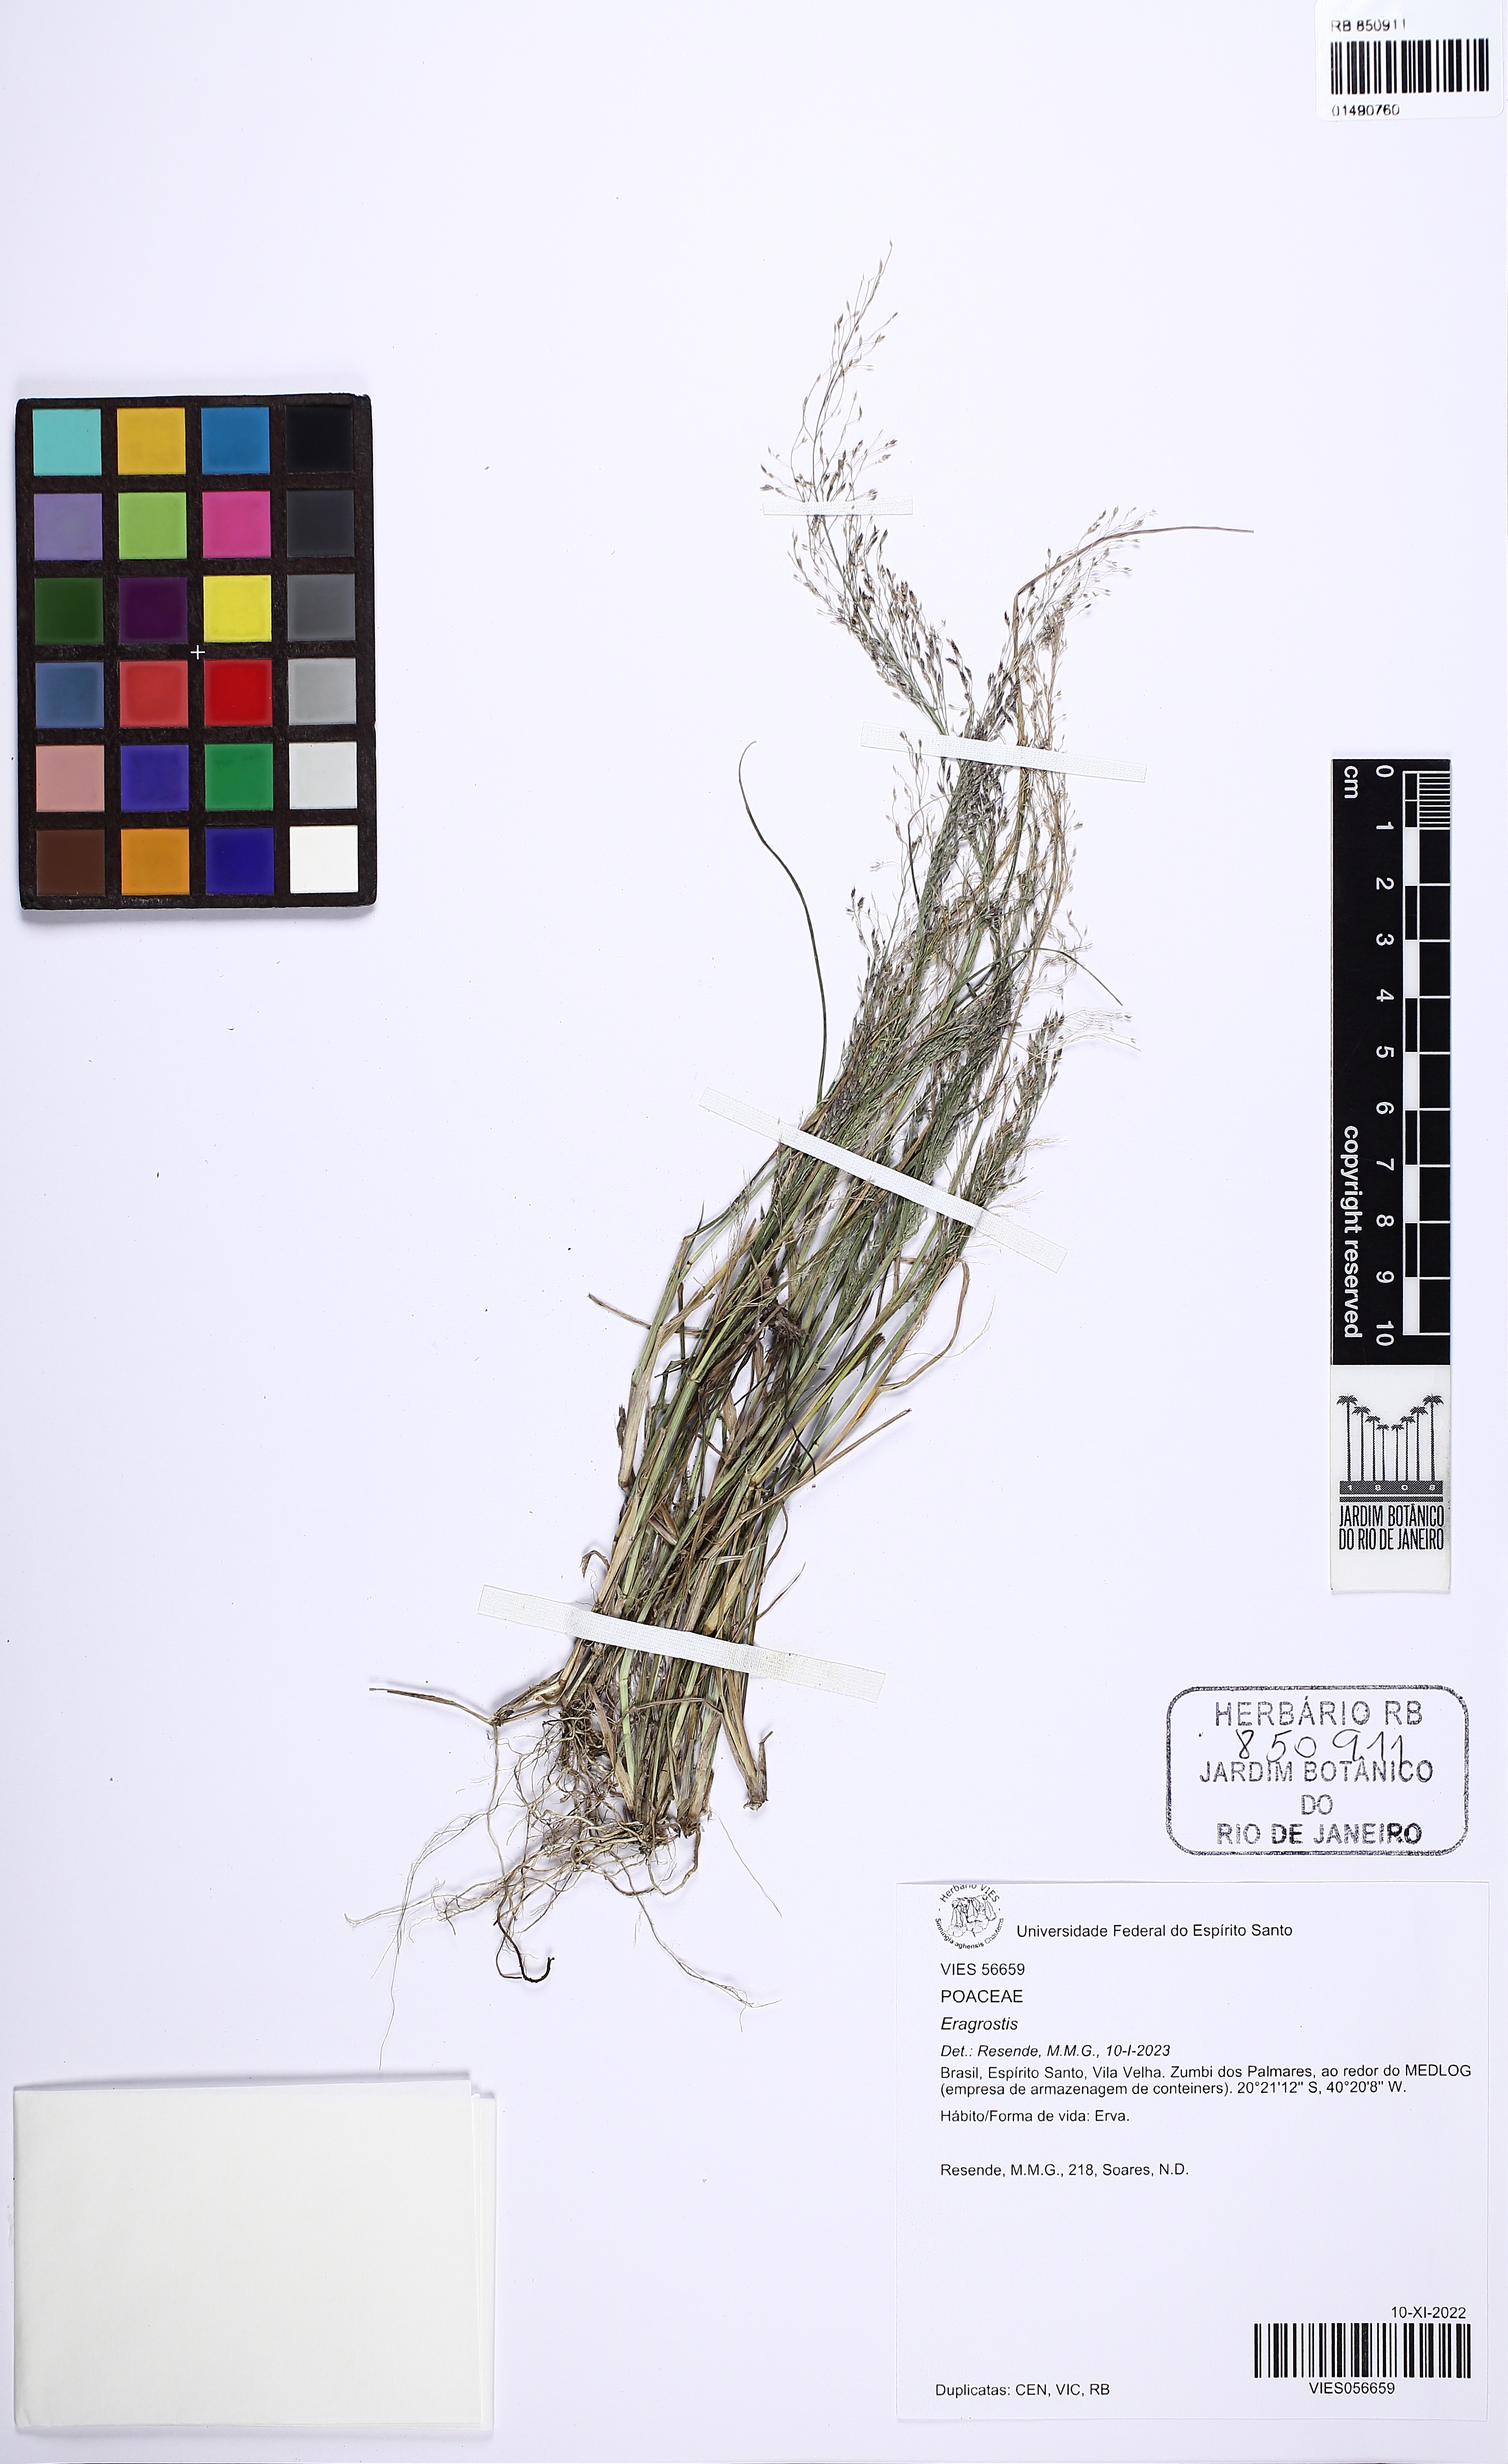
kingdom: Plantae
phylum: Tracheophyta
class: Liliopsida
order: Poales
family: Poaceae
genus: Eragrostis
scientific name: Eragrostis
